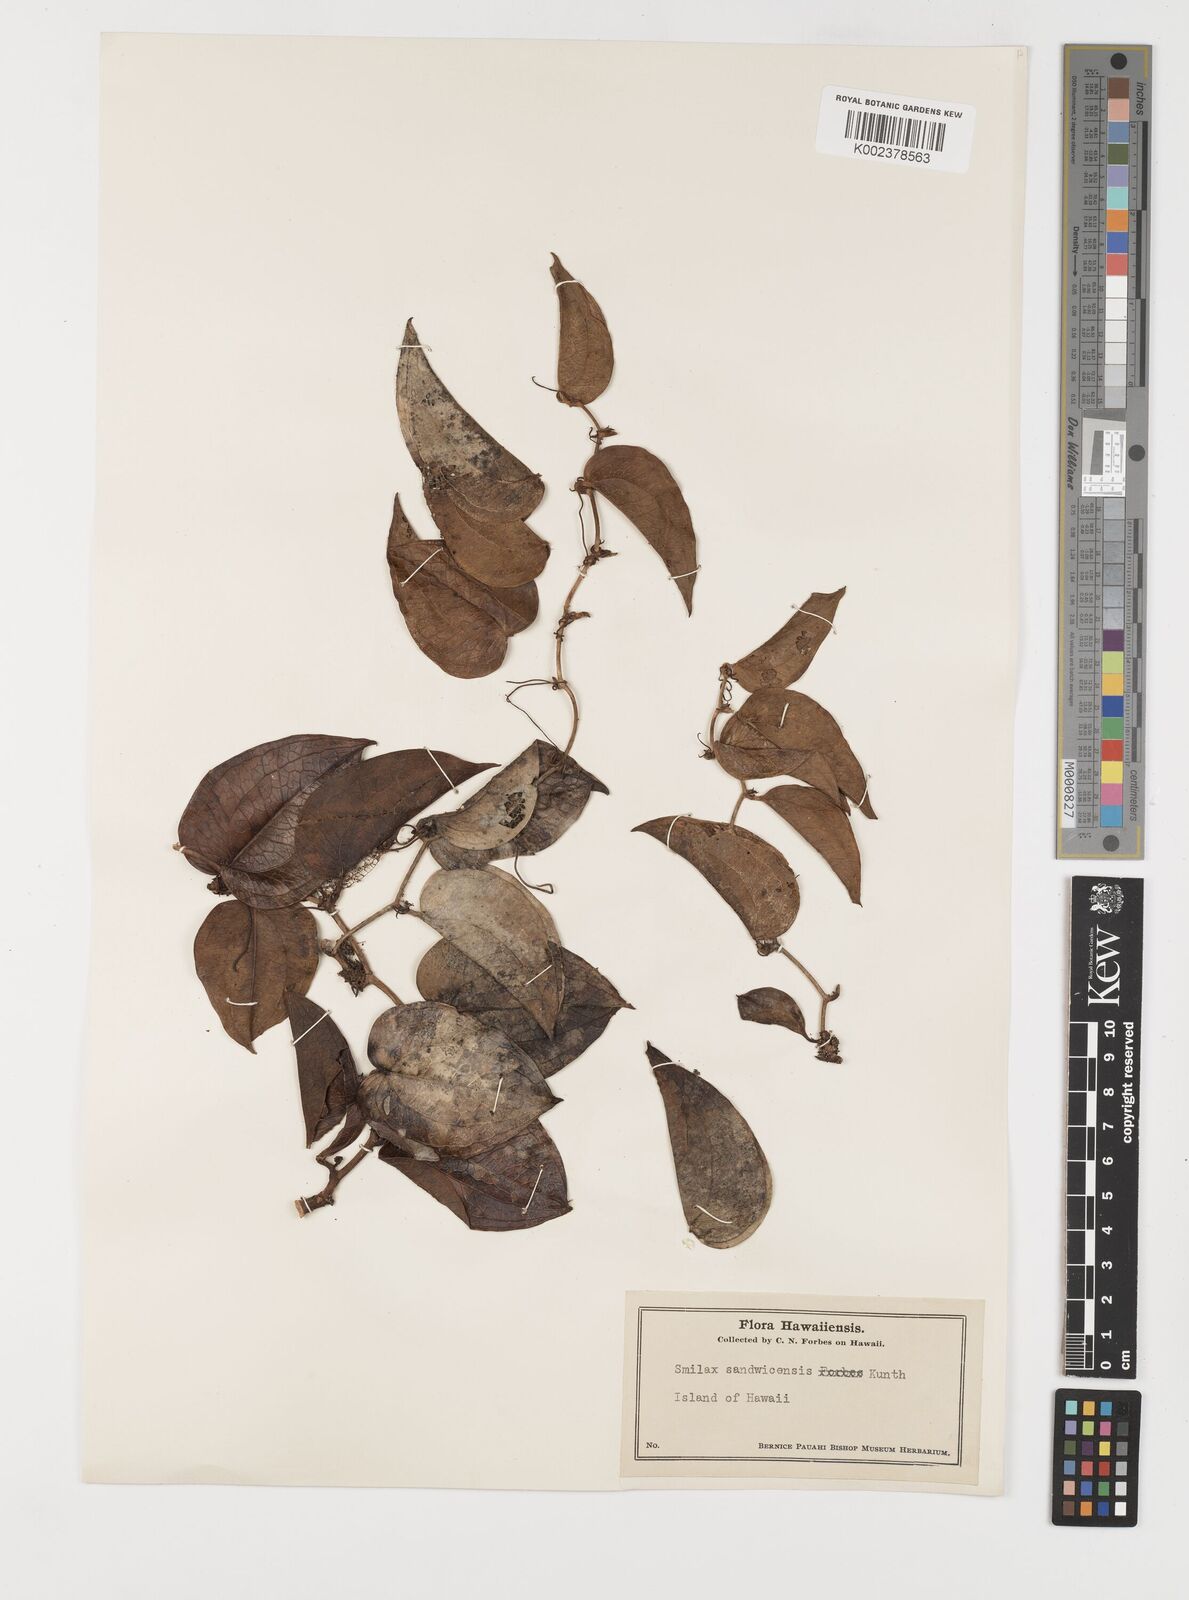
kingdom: Plantae
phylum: Tracheophyta
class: Liliopsida
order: Liliales
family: Smilacaceae
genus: Smilax
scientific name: Smilax melastomifolia
